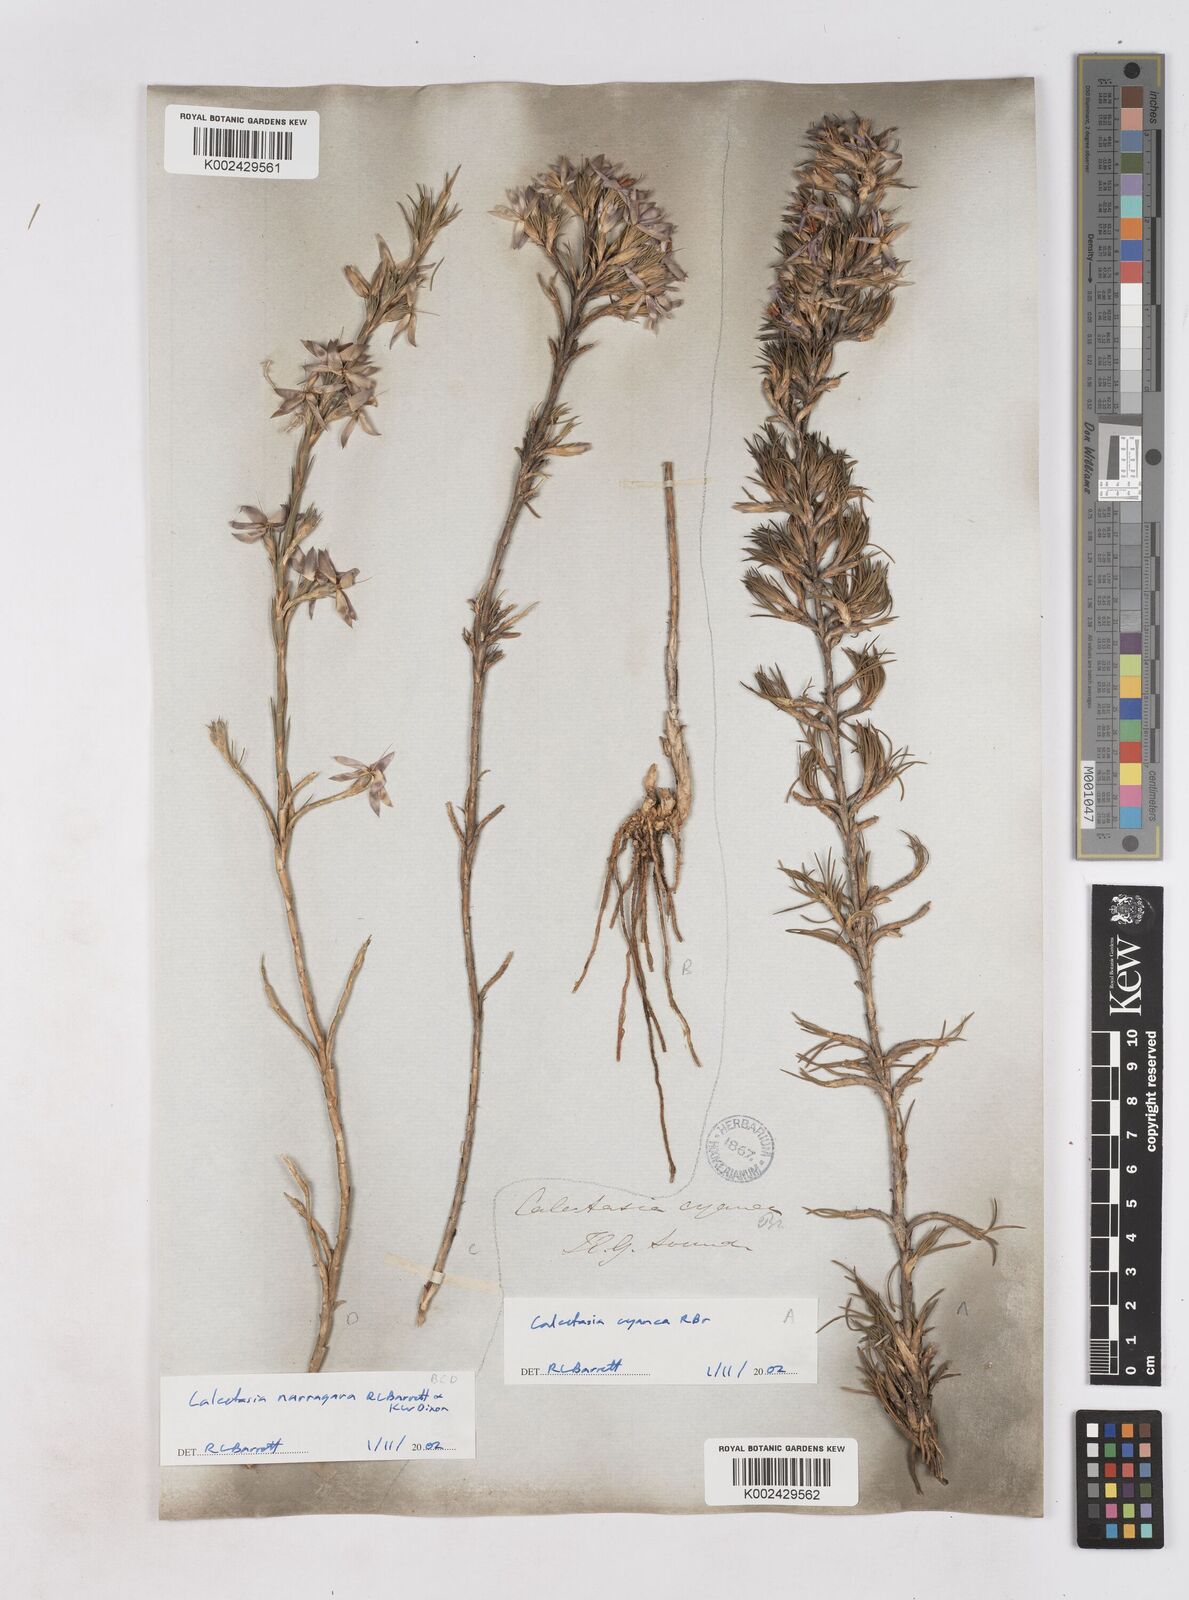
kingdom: Plantae
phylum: Tracheophyta
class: Liliopsida
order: Arecales
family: Dasypogonaceae
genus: Calectasia
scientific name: Calectasia cyanea
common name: Blue tinsel-lily
